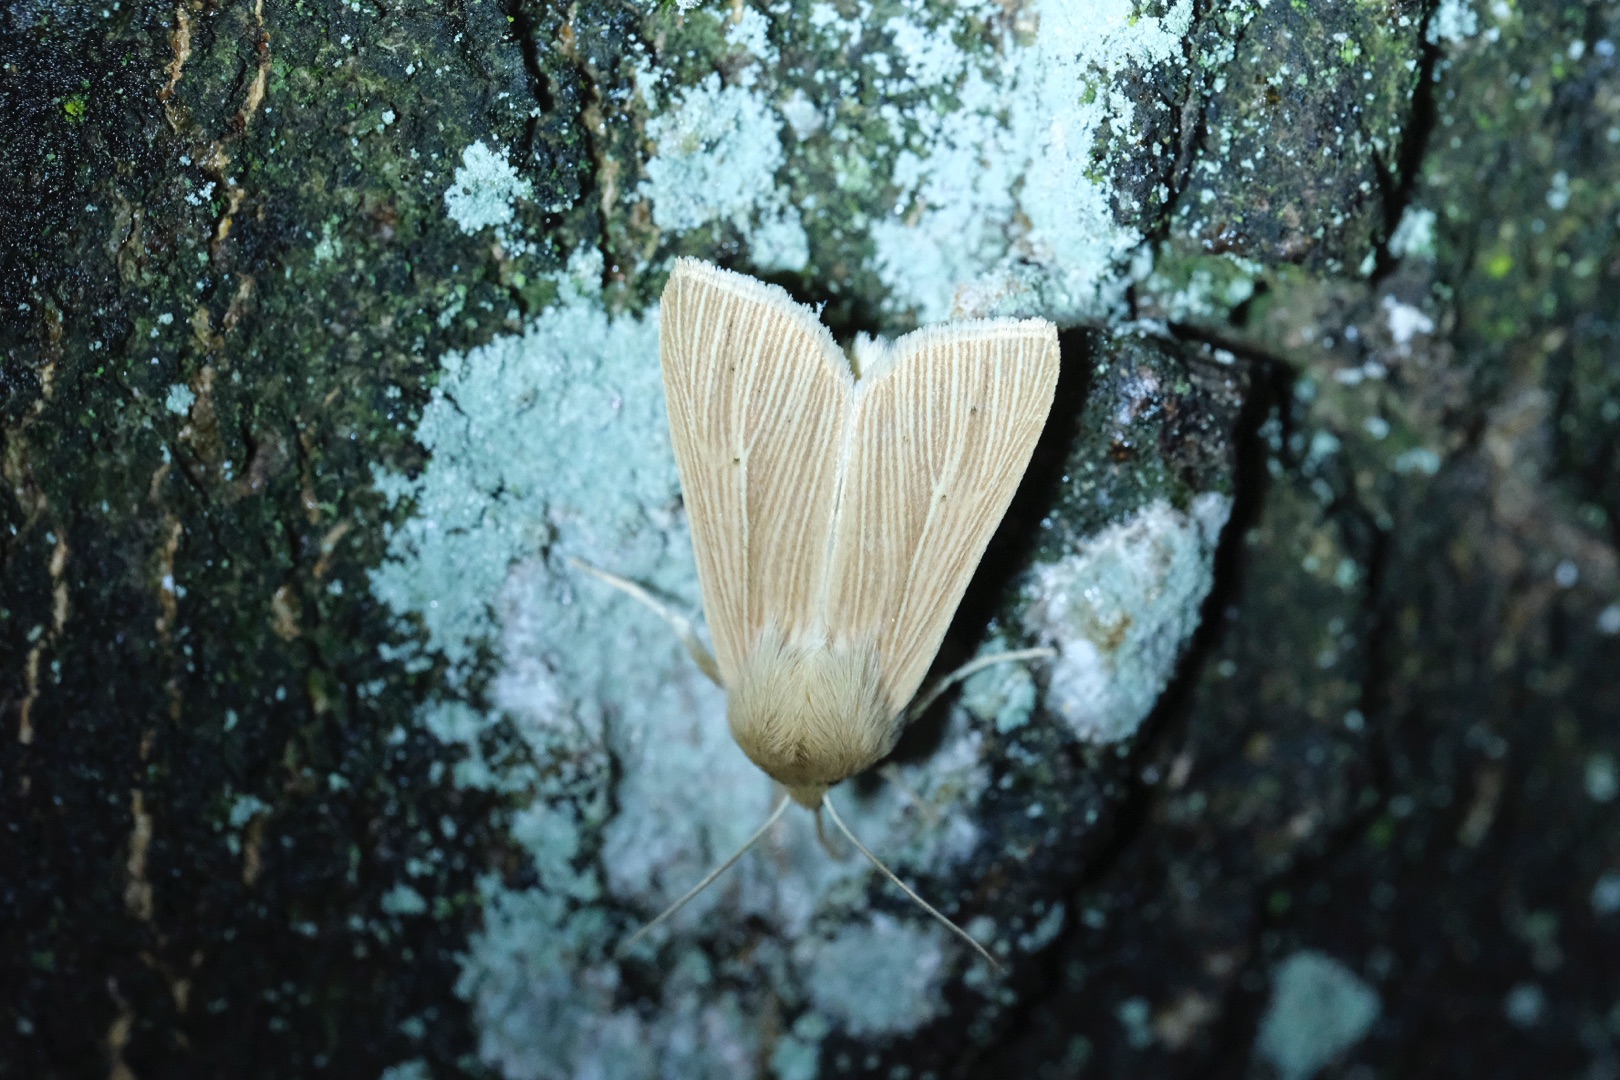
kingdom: Animalia
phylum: Arthropoda
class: Insecta
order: Lepidoptera
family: Noctuidae
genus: Mythimna
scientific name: Mythimna pallens
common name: Halmugle
